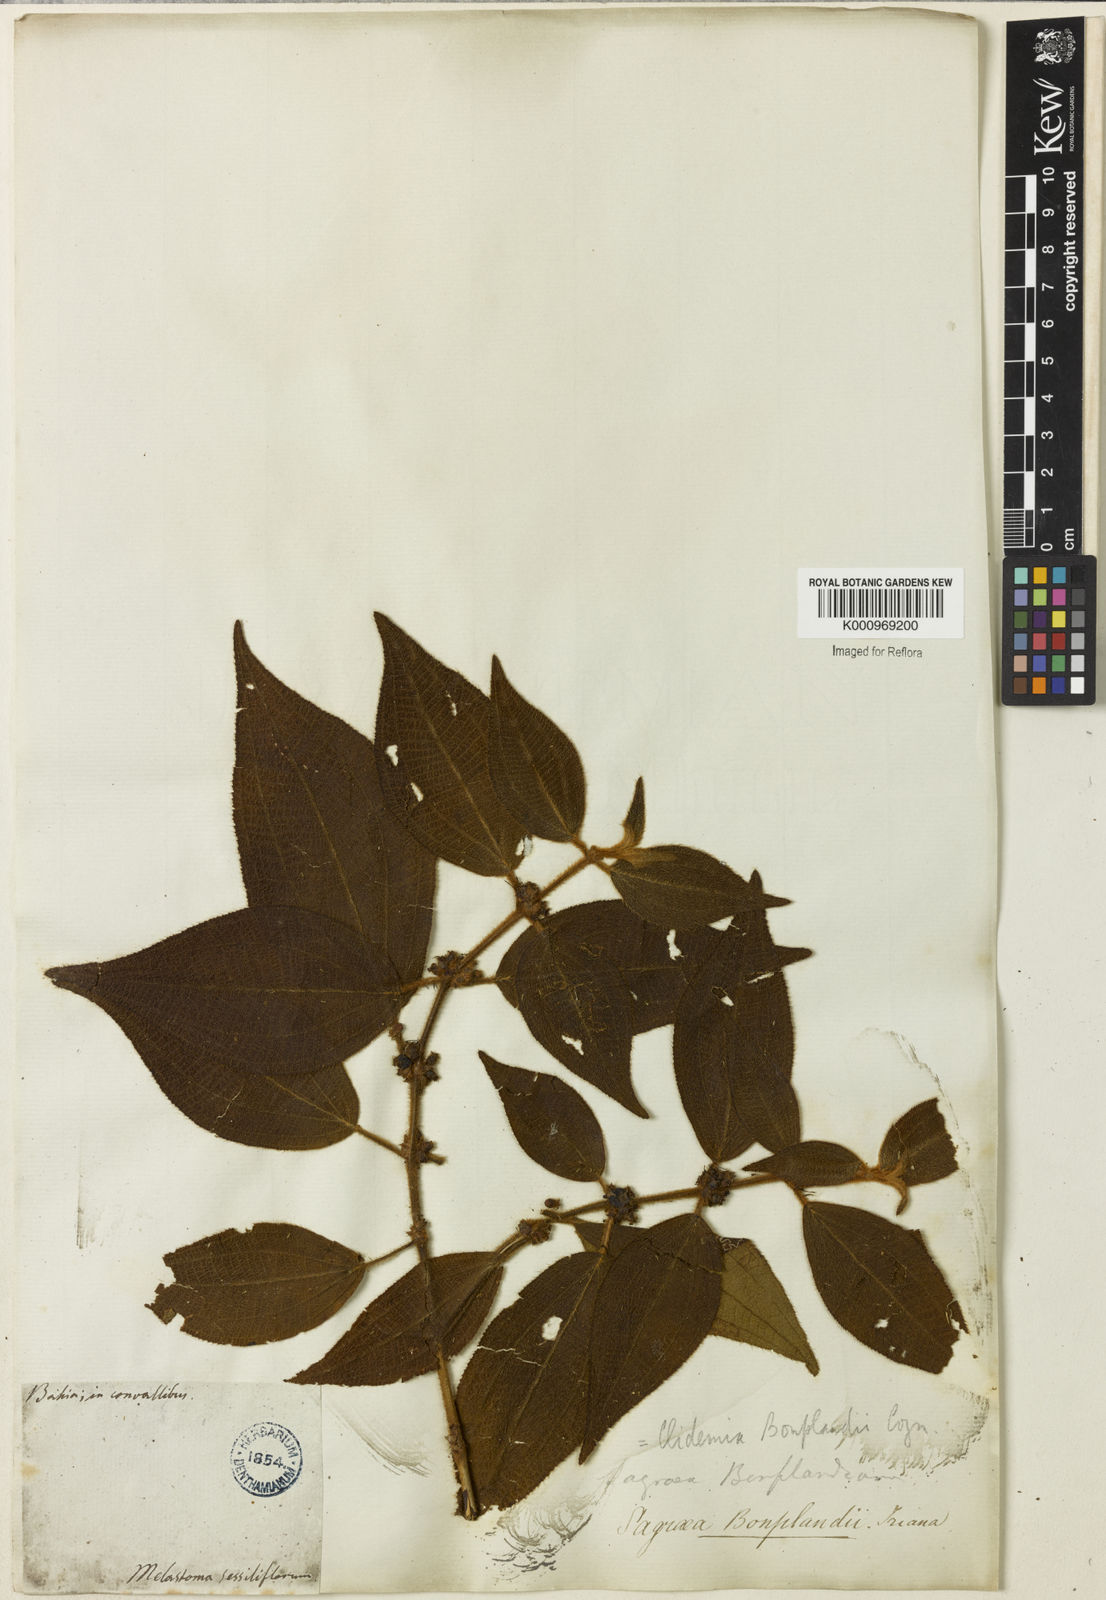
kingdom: Plantae
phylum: Tracheophyta
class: Magnoliopsida
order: Myrtales
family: Melastomataceae
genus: Miconia
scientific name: Miconia debilis
